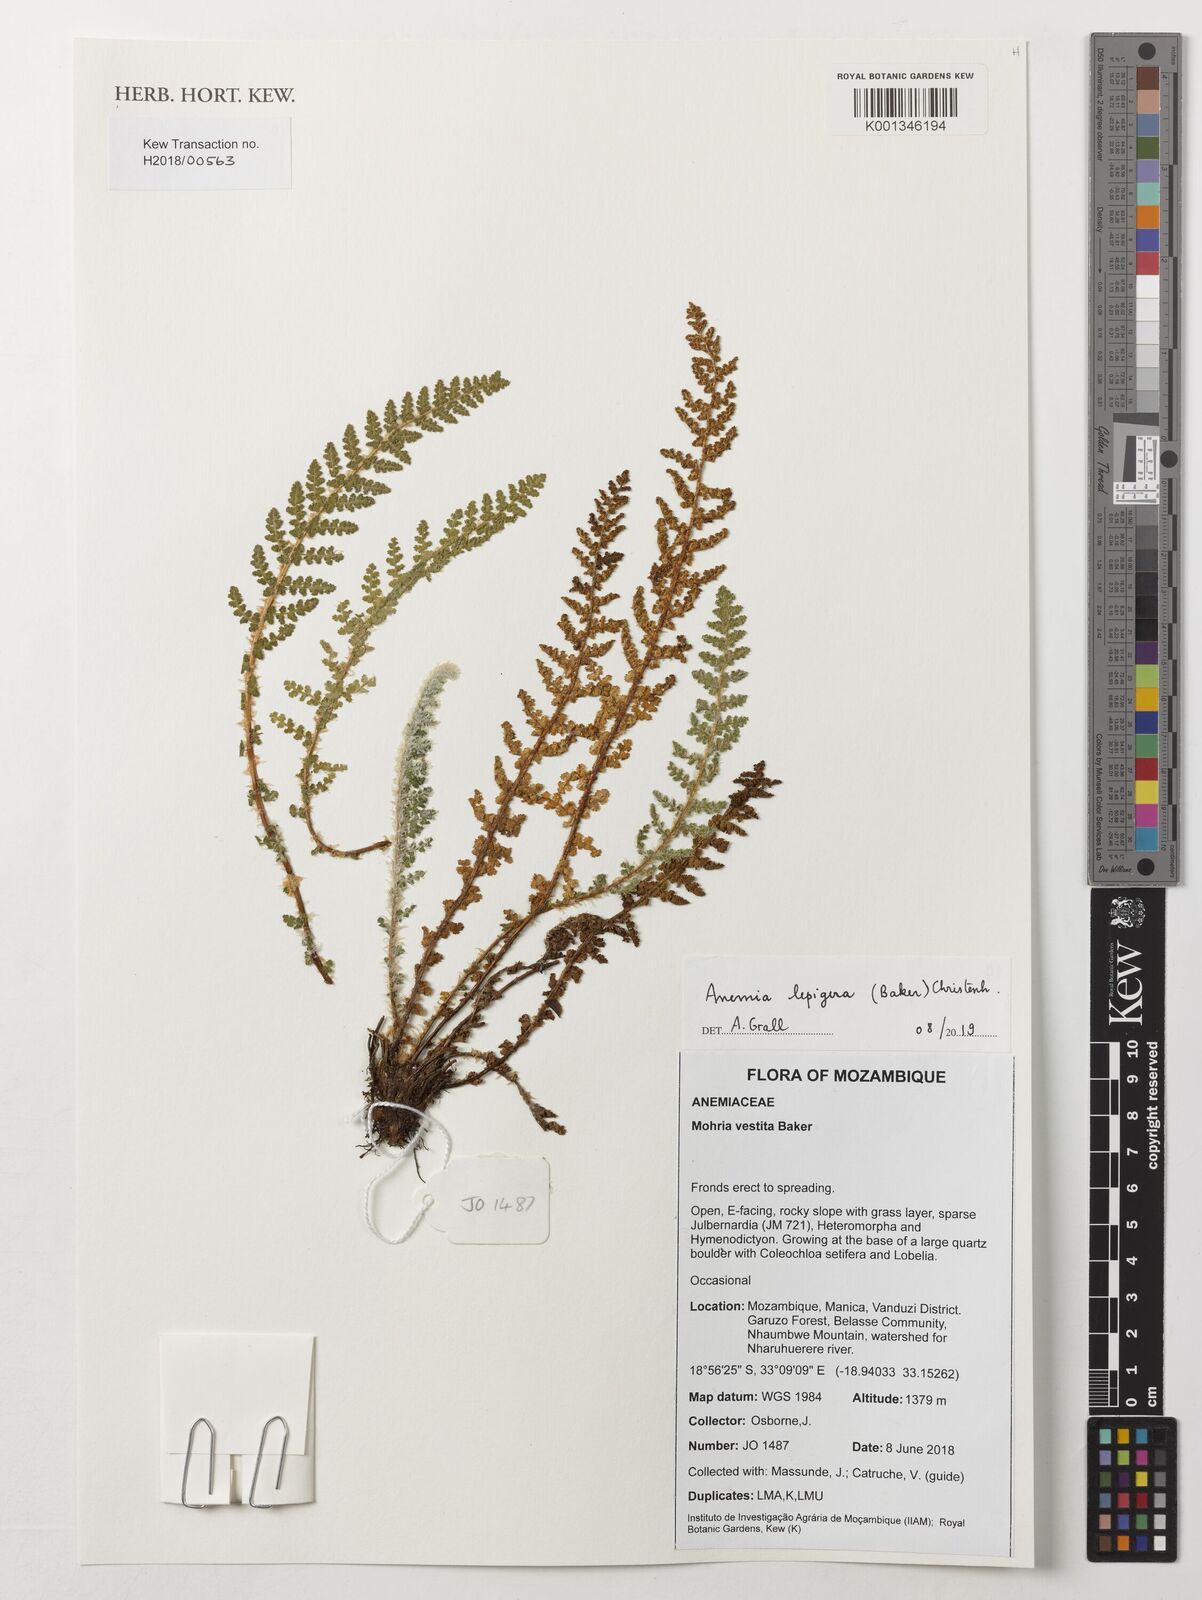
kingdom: Plantae
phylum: Tracheophyta
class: Polypodiopsida
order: Schizaeales
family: Anemiaceae
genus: Anemia
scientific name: Anemia lepigera
